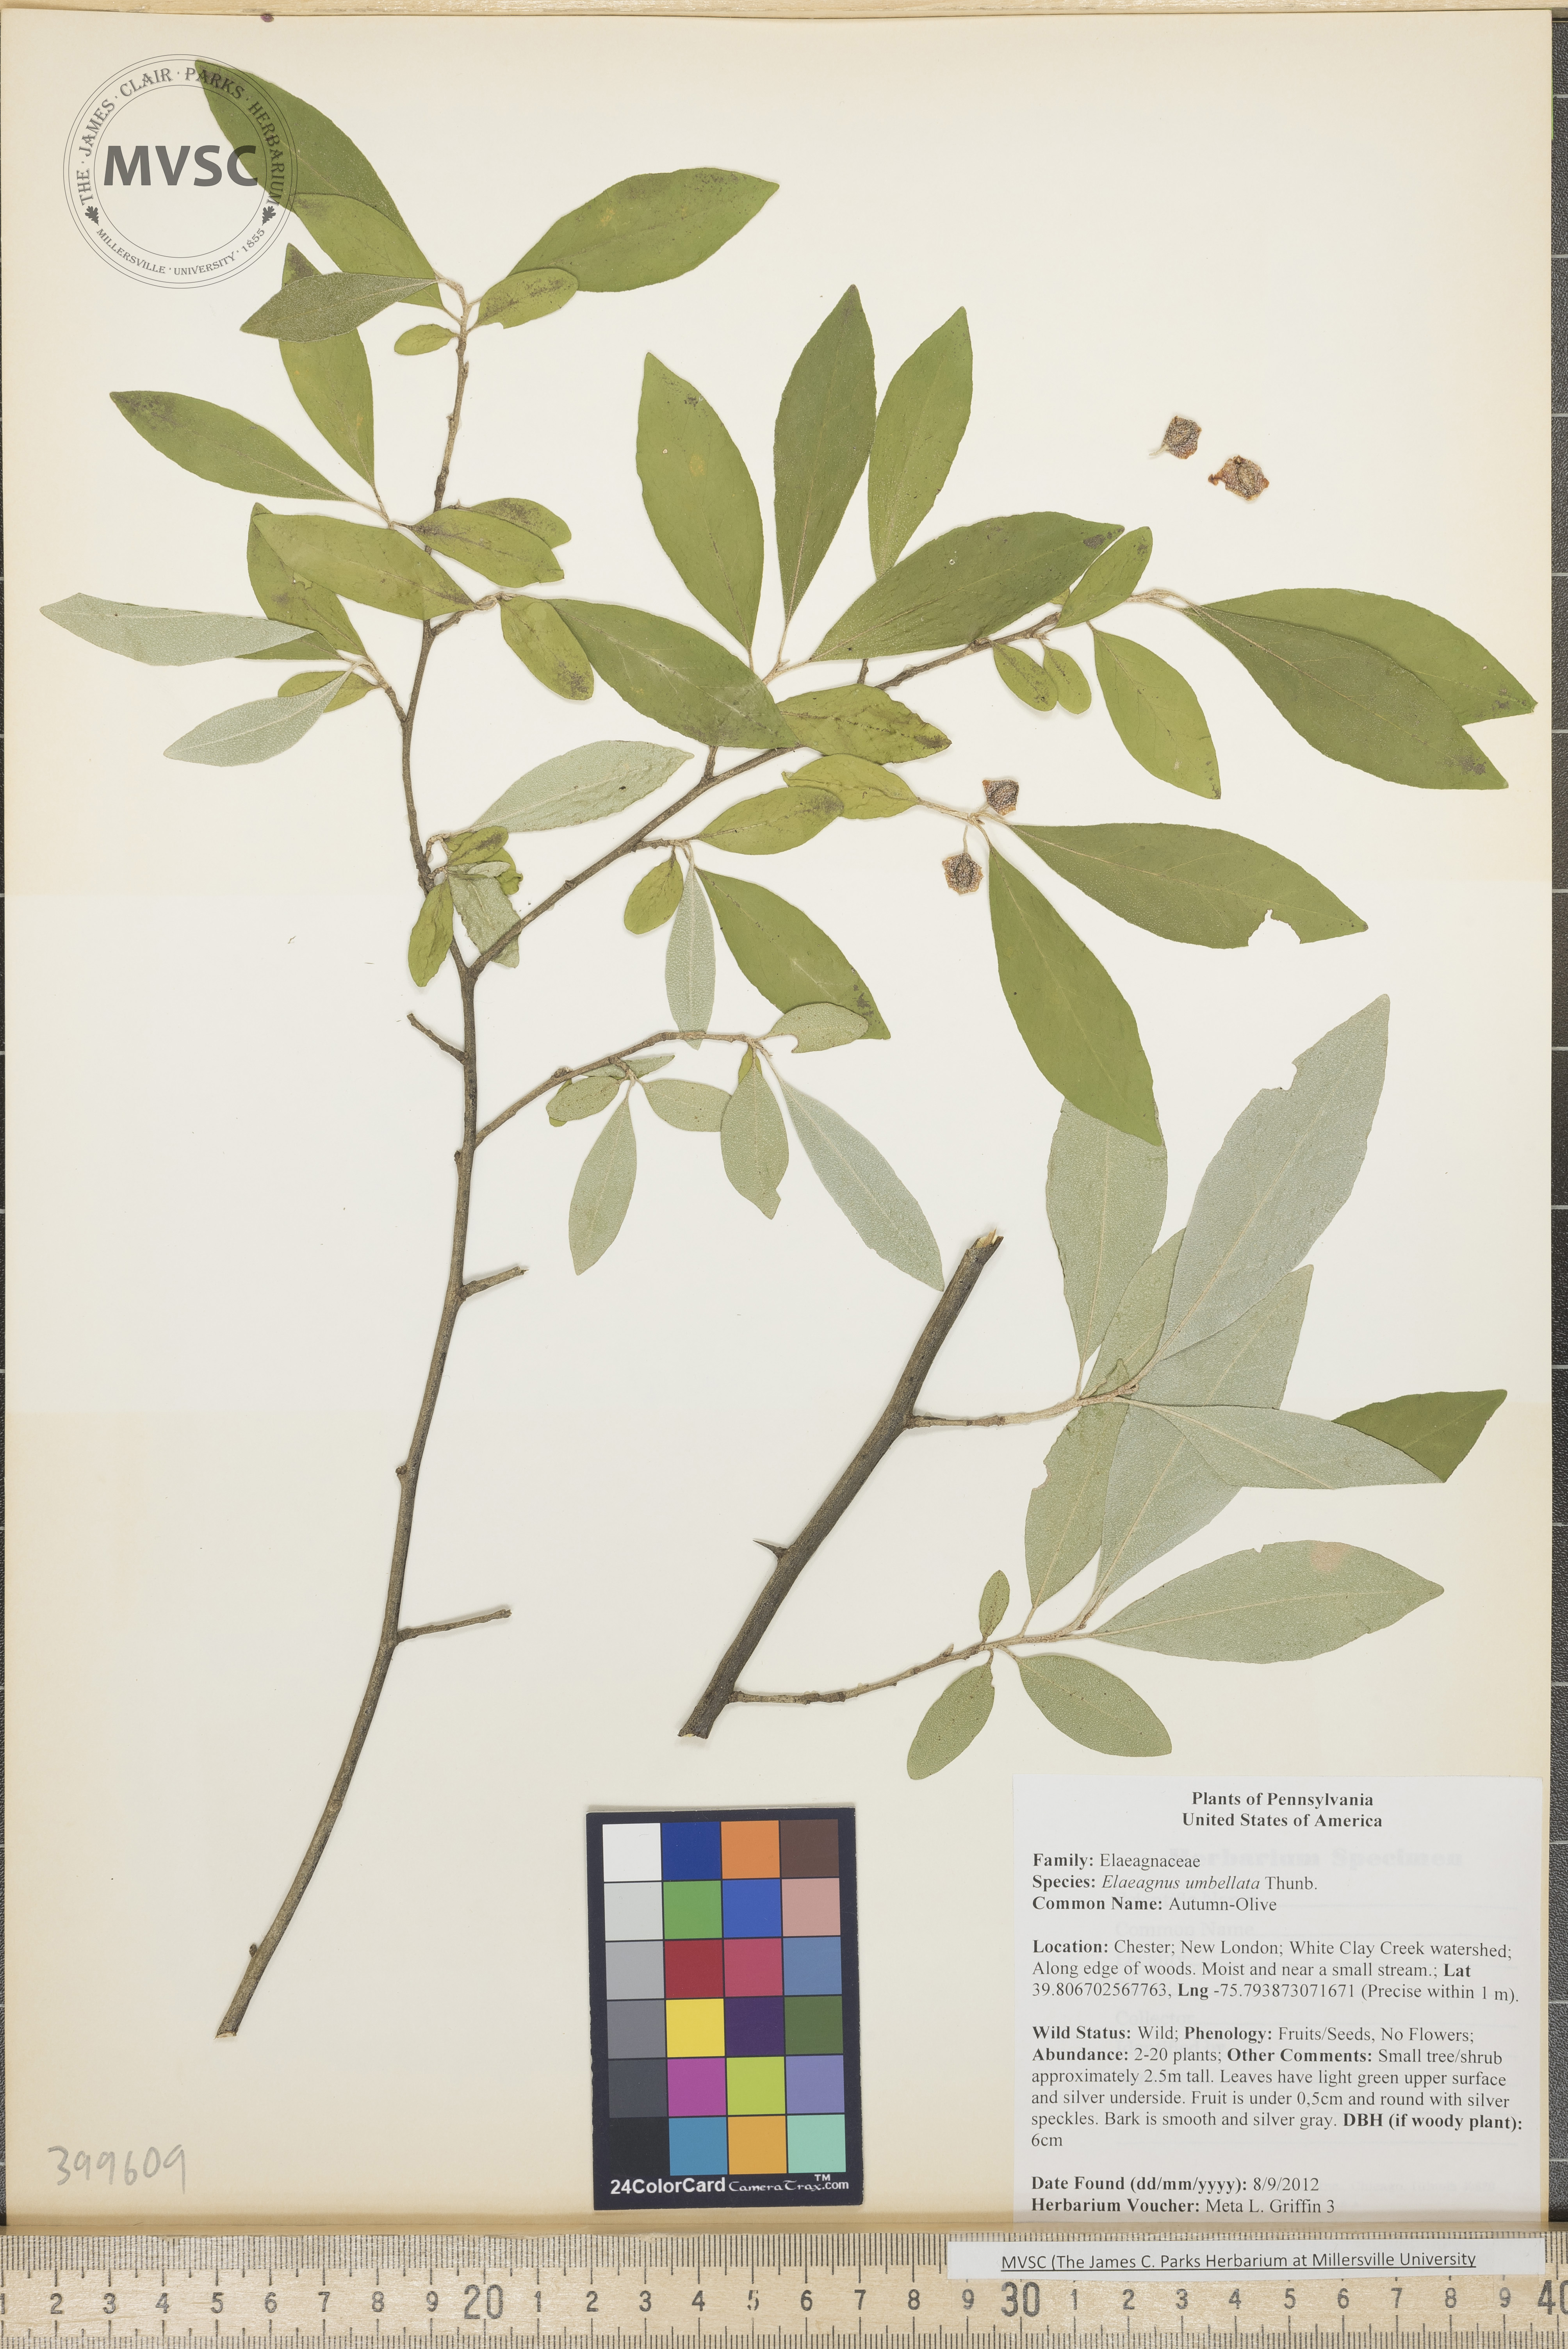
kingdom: Plantae
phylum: Tracheophyta
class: Magnoliopsida
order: Rosales
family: Elaeagnaceae
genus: Elaeagnus
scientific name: Elaeagnus umbellata
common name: Autumn-Olive
